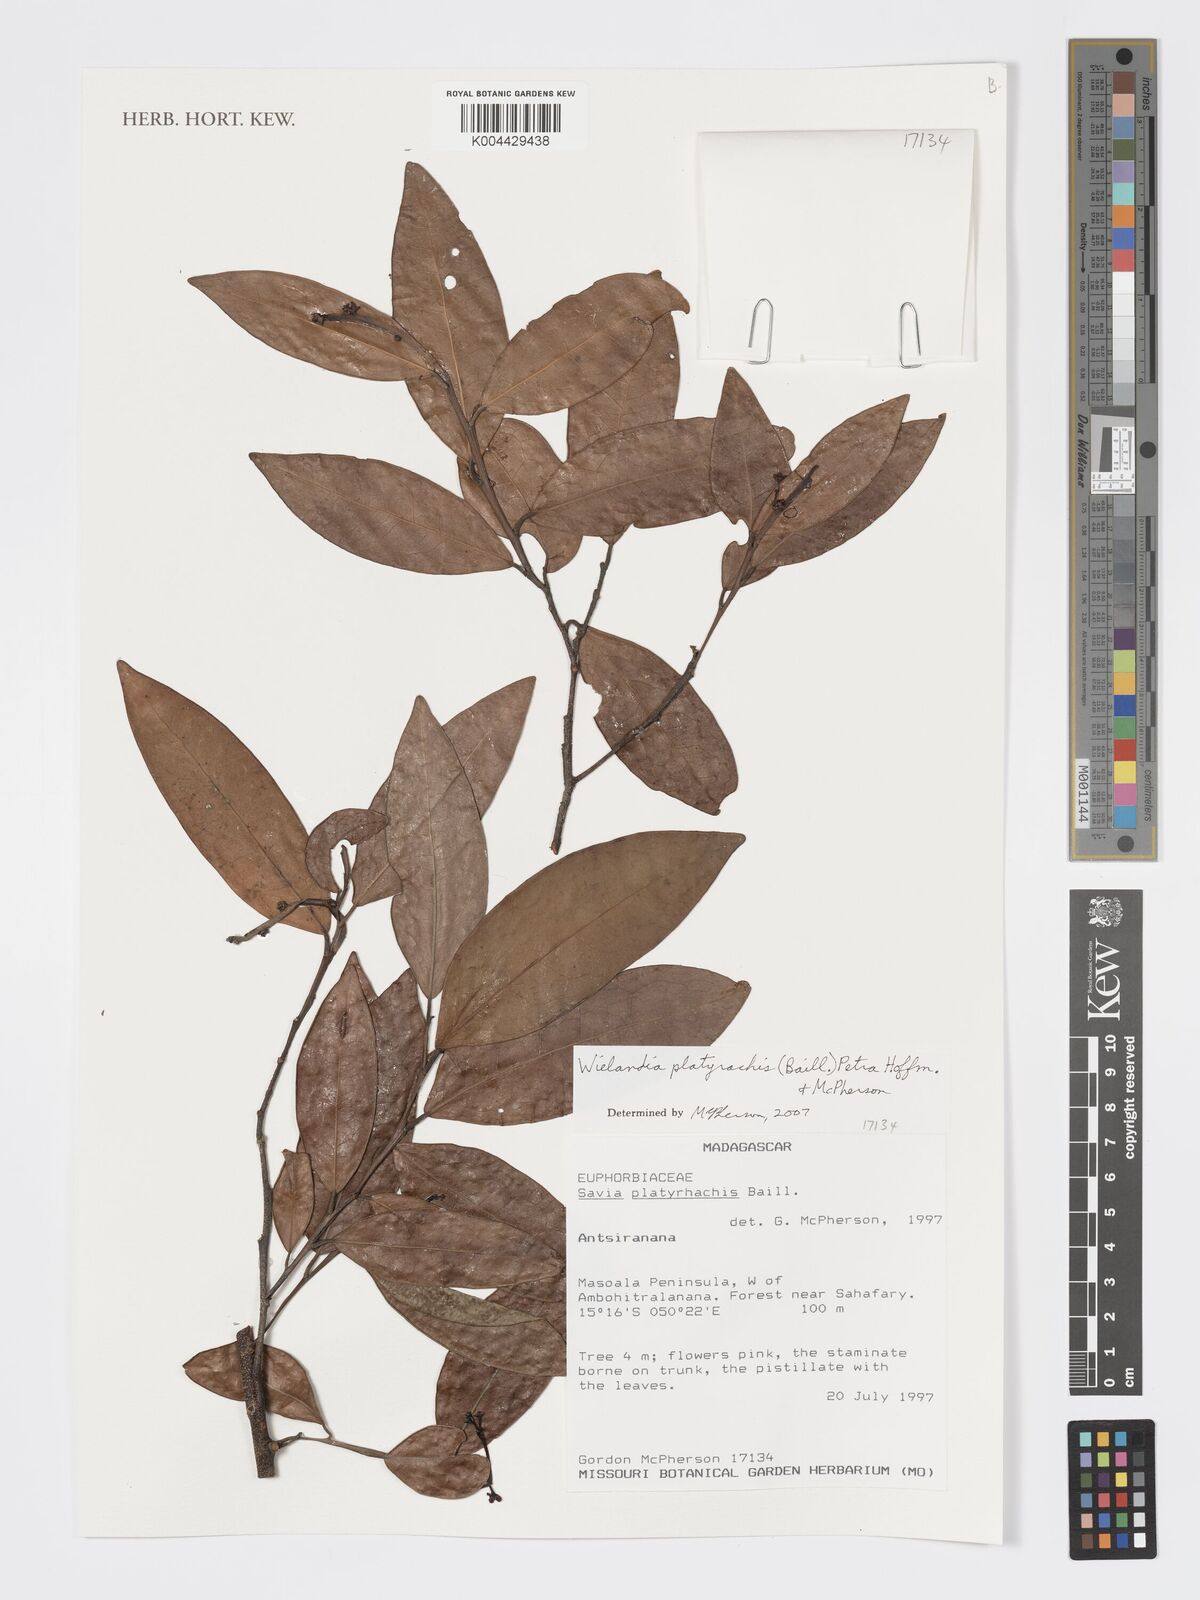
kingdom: Plantae
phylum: Tracheophyta
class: Magnoliopsida
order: Malpighiales
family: Phyllanthaceae
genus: Wielandia
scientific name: Wielandia platyrachis
